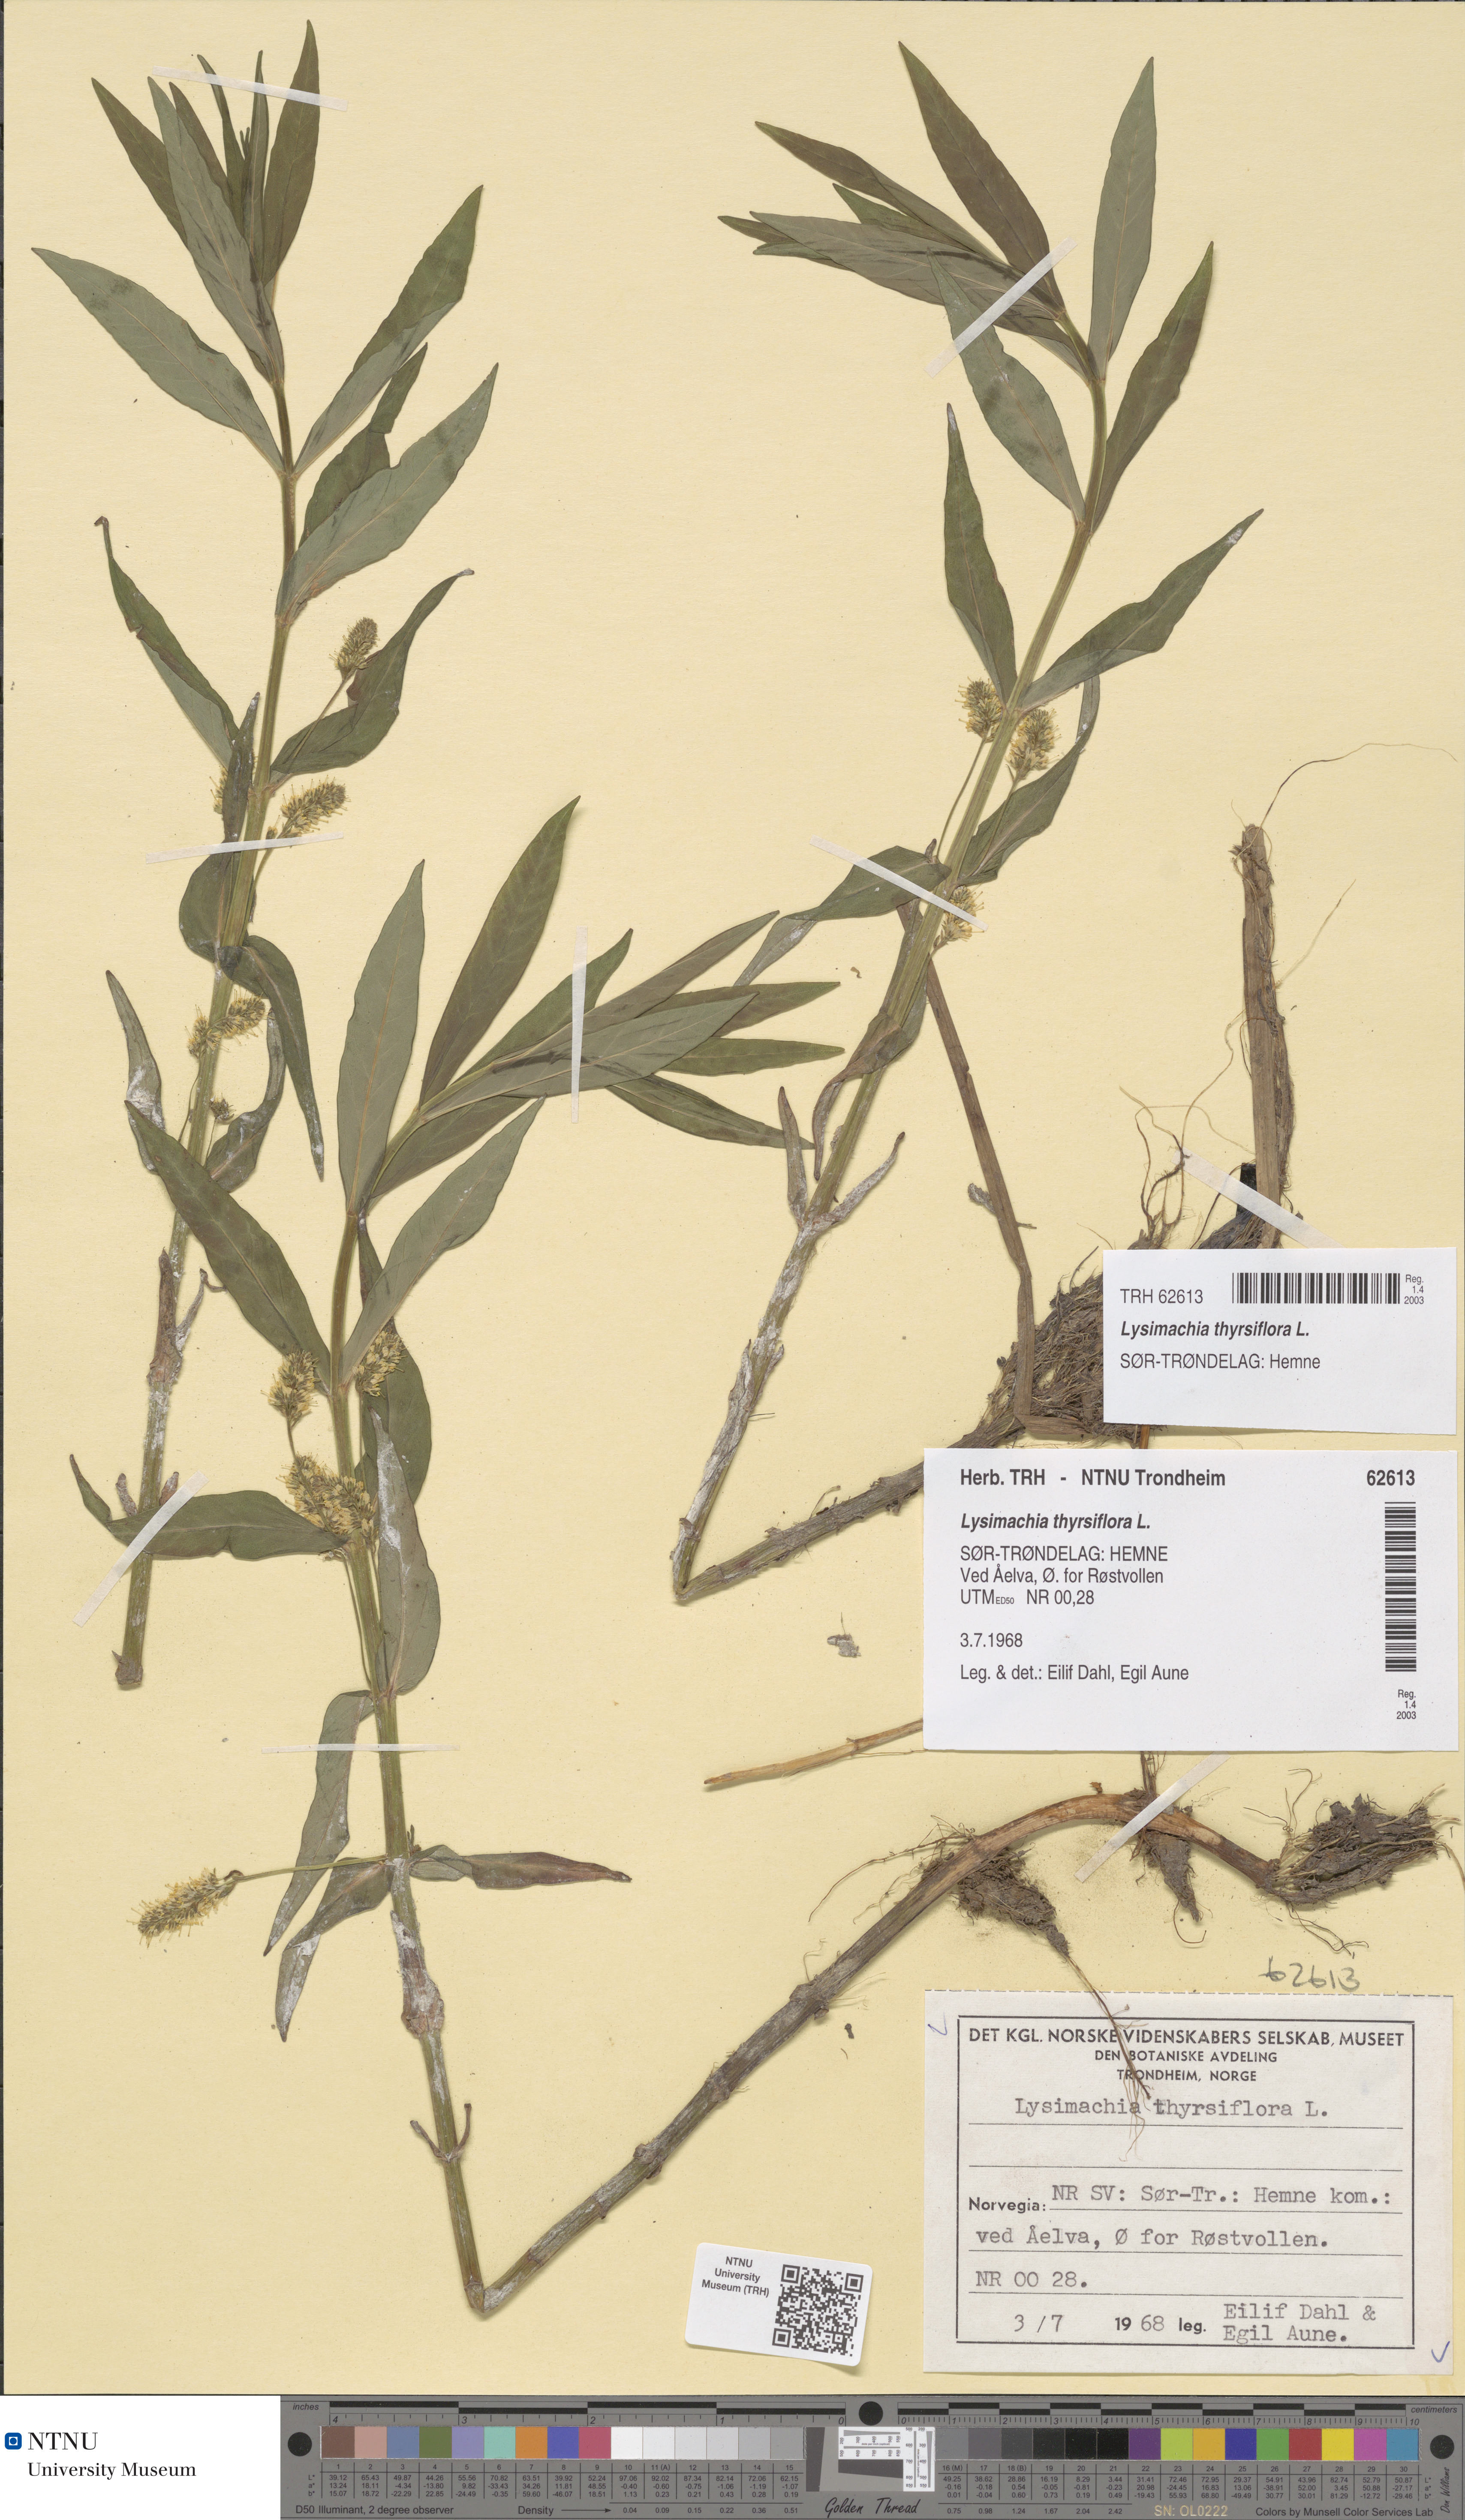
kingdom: Plantae
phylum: Tracheophyta
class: Magnoliopsida
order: Ericales
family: Primulaceae
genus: Lysimachia
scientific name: Lysimachia thyrsiflora
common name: Tufted loosestrife
